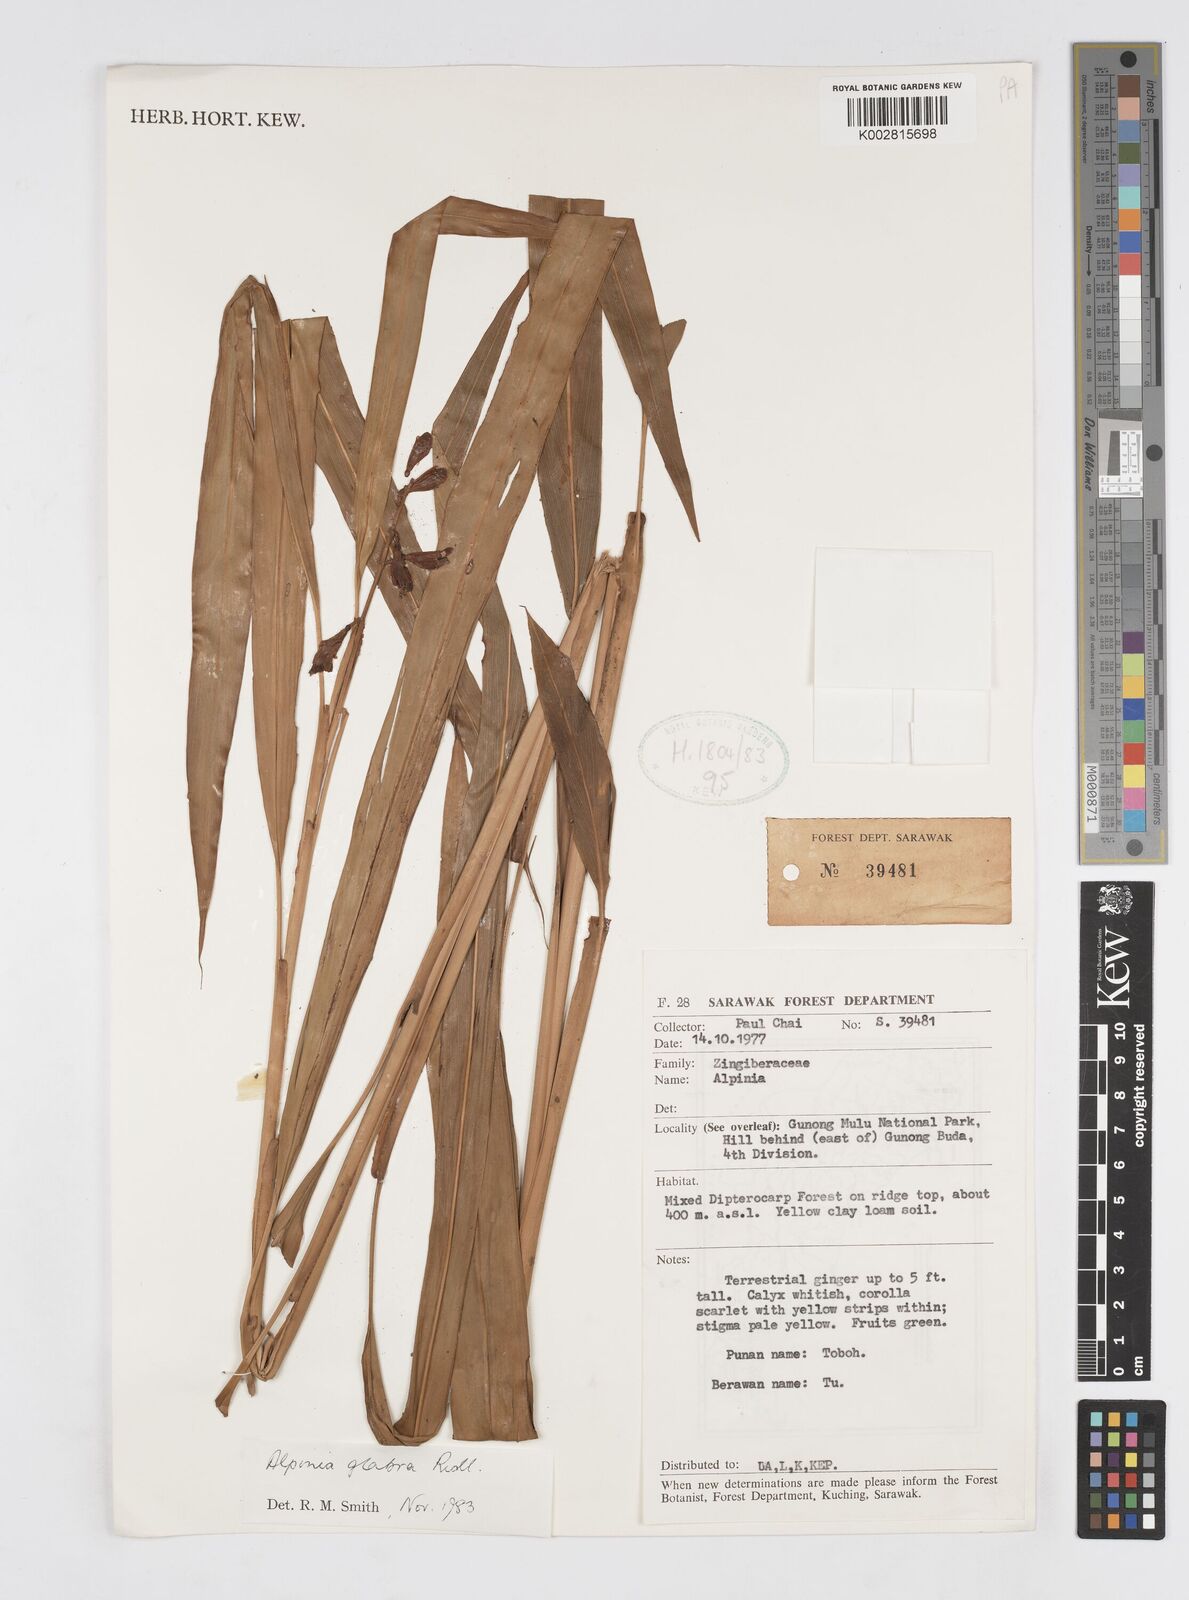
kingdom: Plantae
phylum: Tracheophyta
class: Liliopsida
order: Zingiberales
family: Zingiberaceae
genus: Alpinia
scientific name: Alpinia glabra
